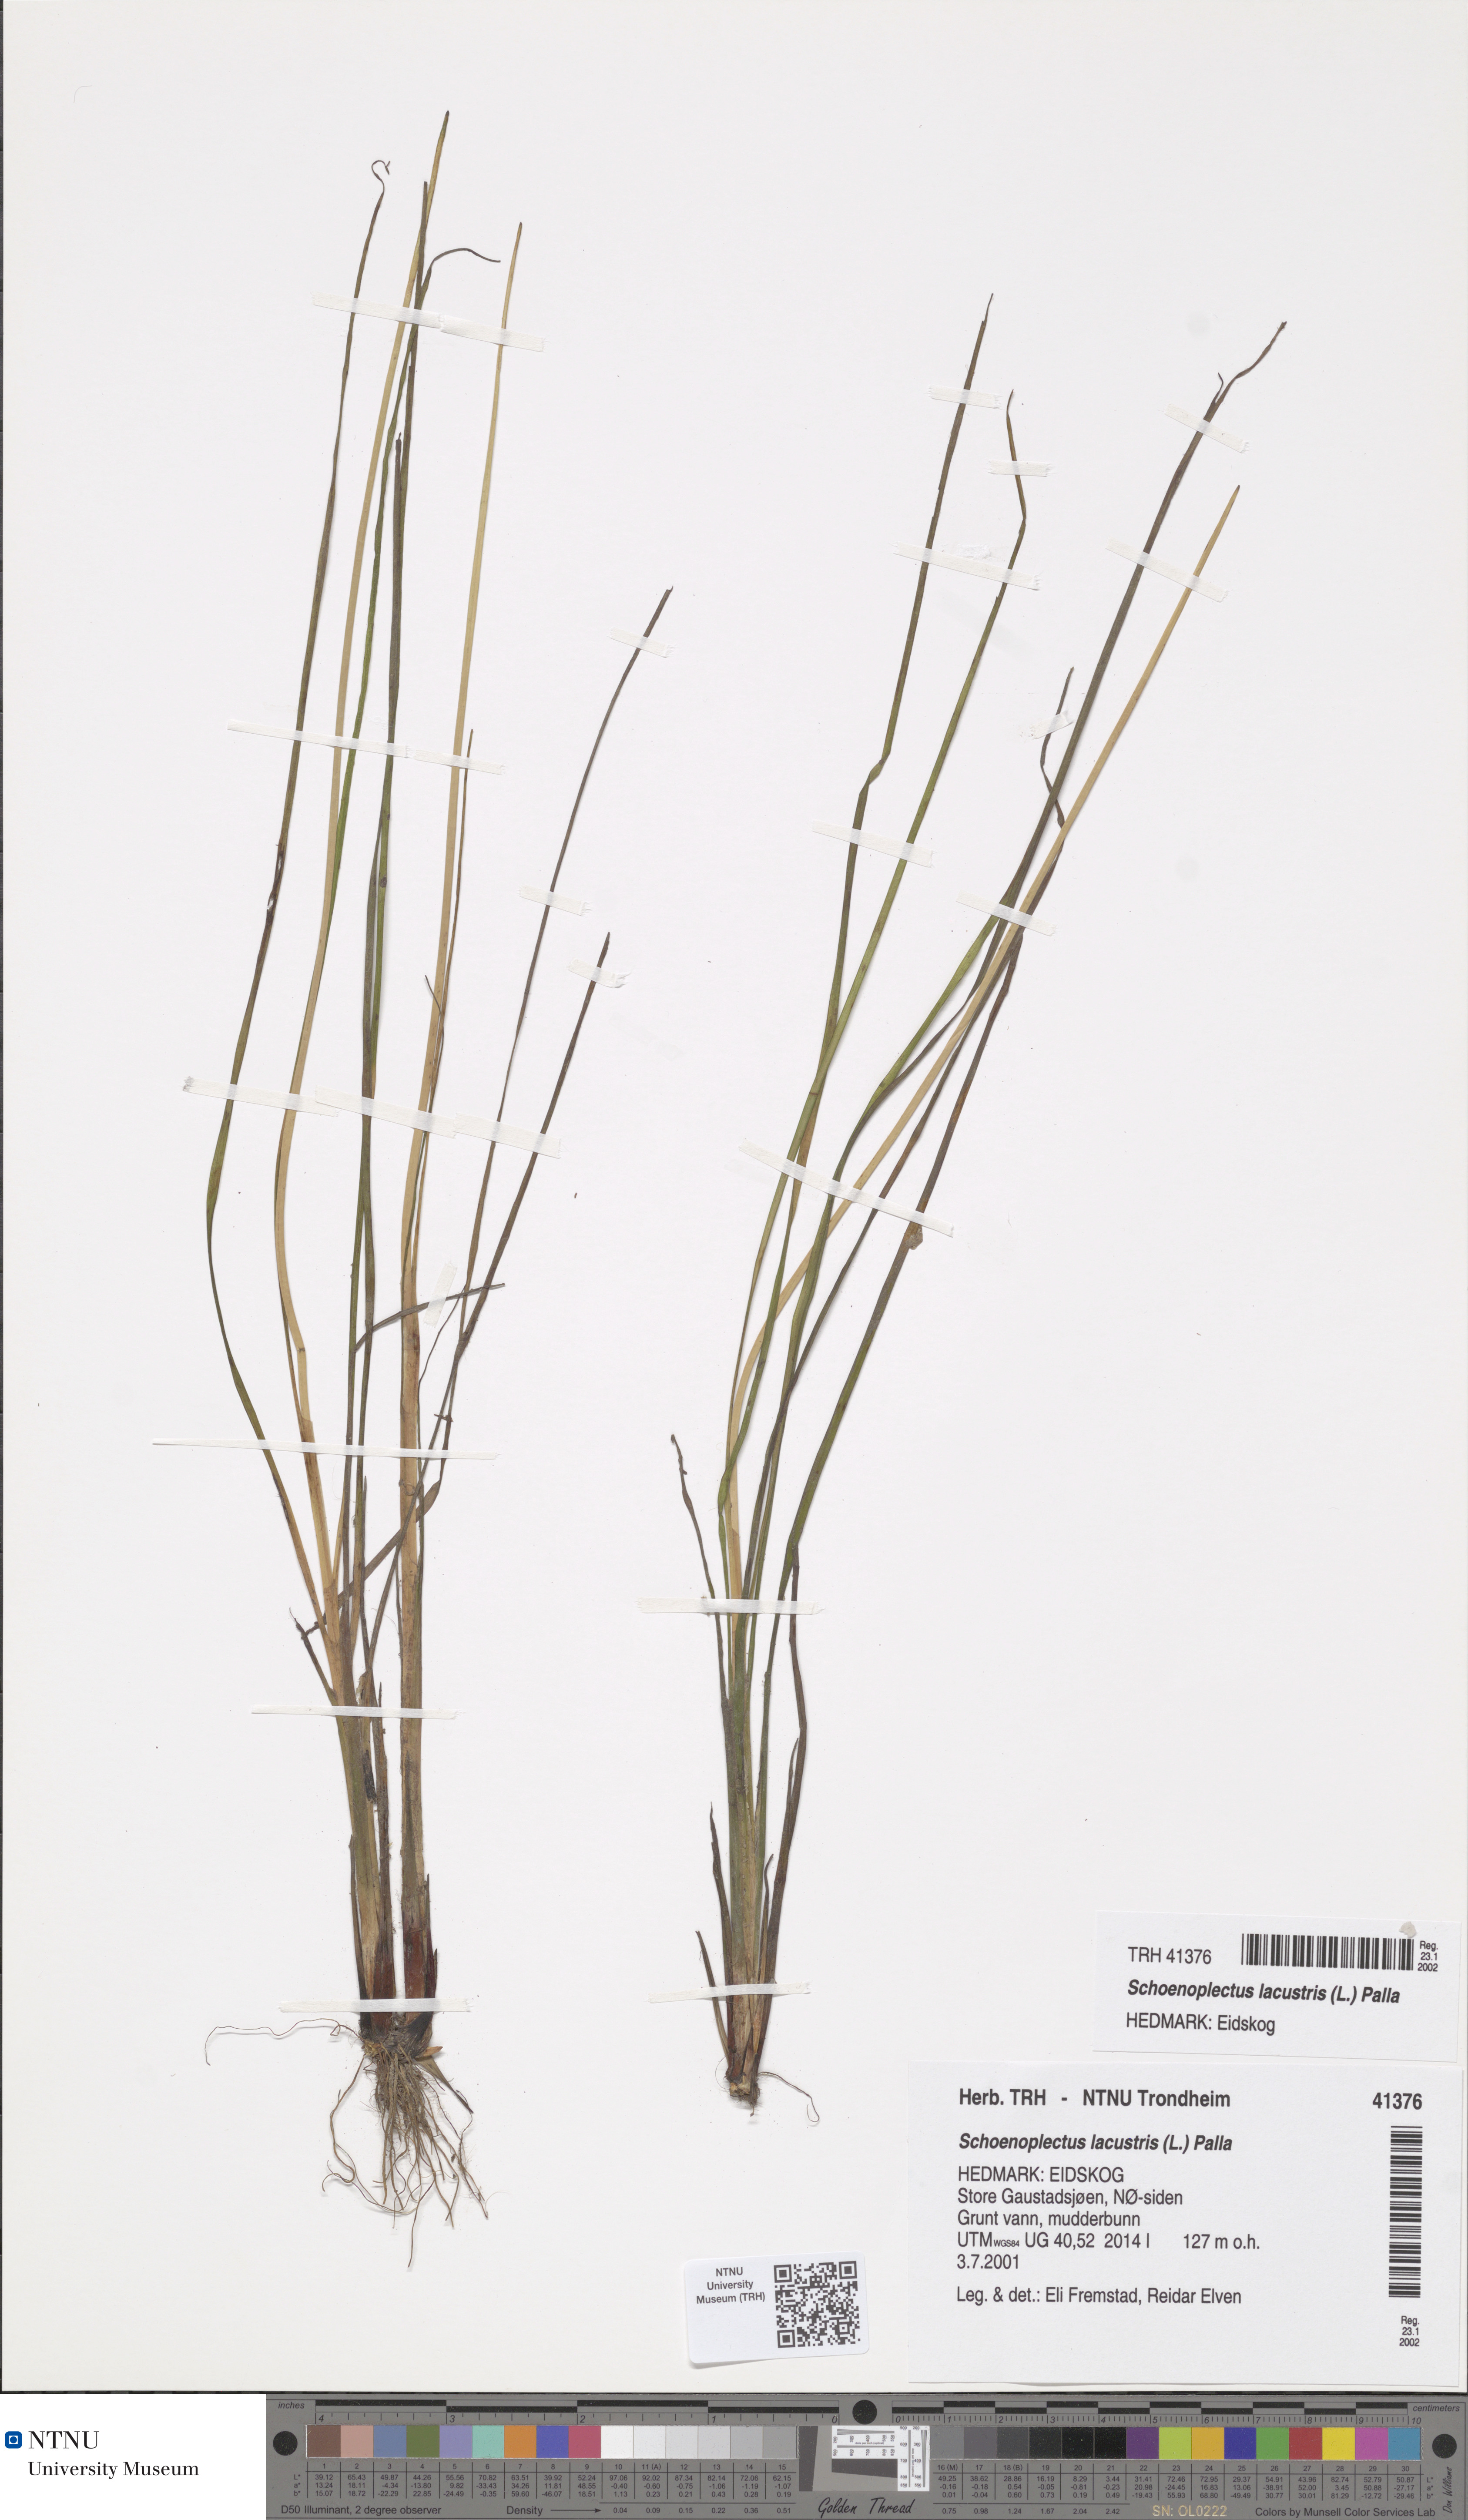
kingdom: Plantae
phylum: Tracheophyta
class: Liliopsida
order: Poales
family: Cyperaceae
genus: Schoenoplectus
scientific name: Schoenoplectus lacustris
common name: Common club-rush
